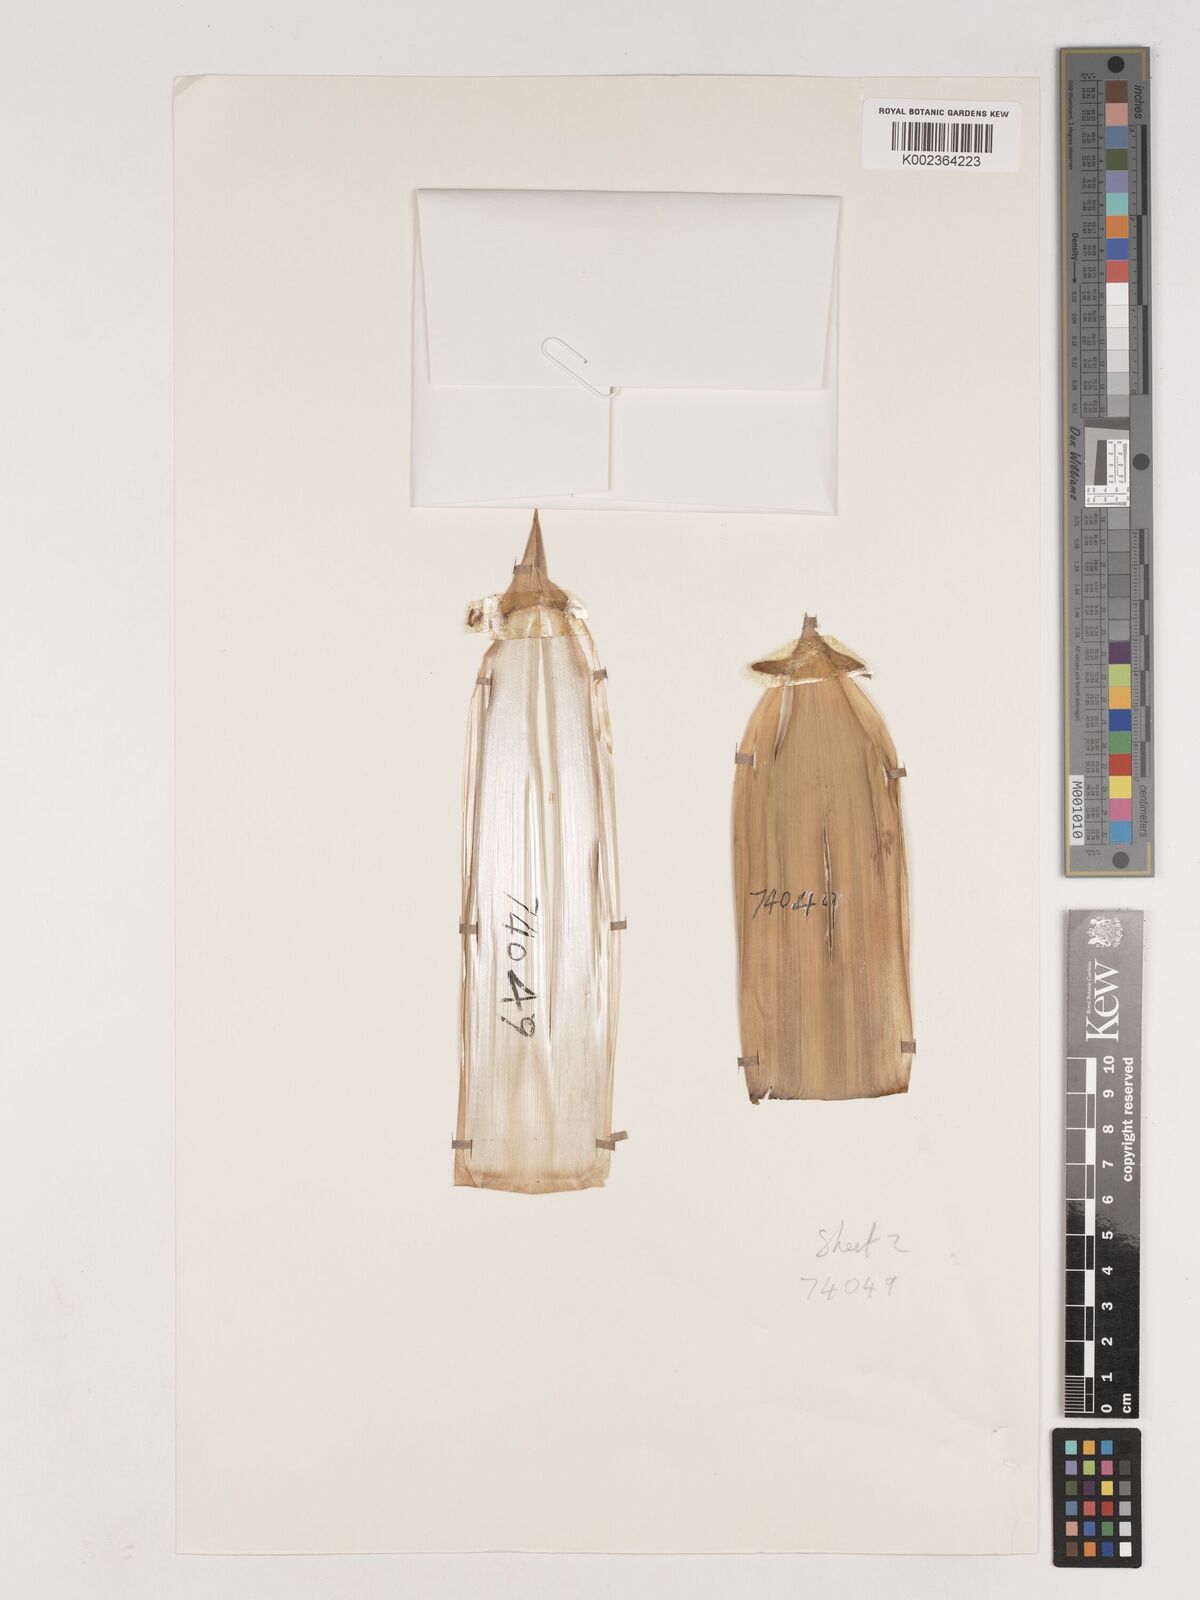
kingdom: Plantae
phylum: Tracheophyta
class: Liliopsida
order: Poales
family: Poaceae
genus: Phyllostachys
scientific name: Phyllostachys nidularia
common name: Broom bamboo
